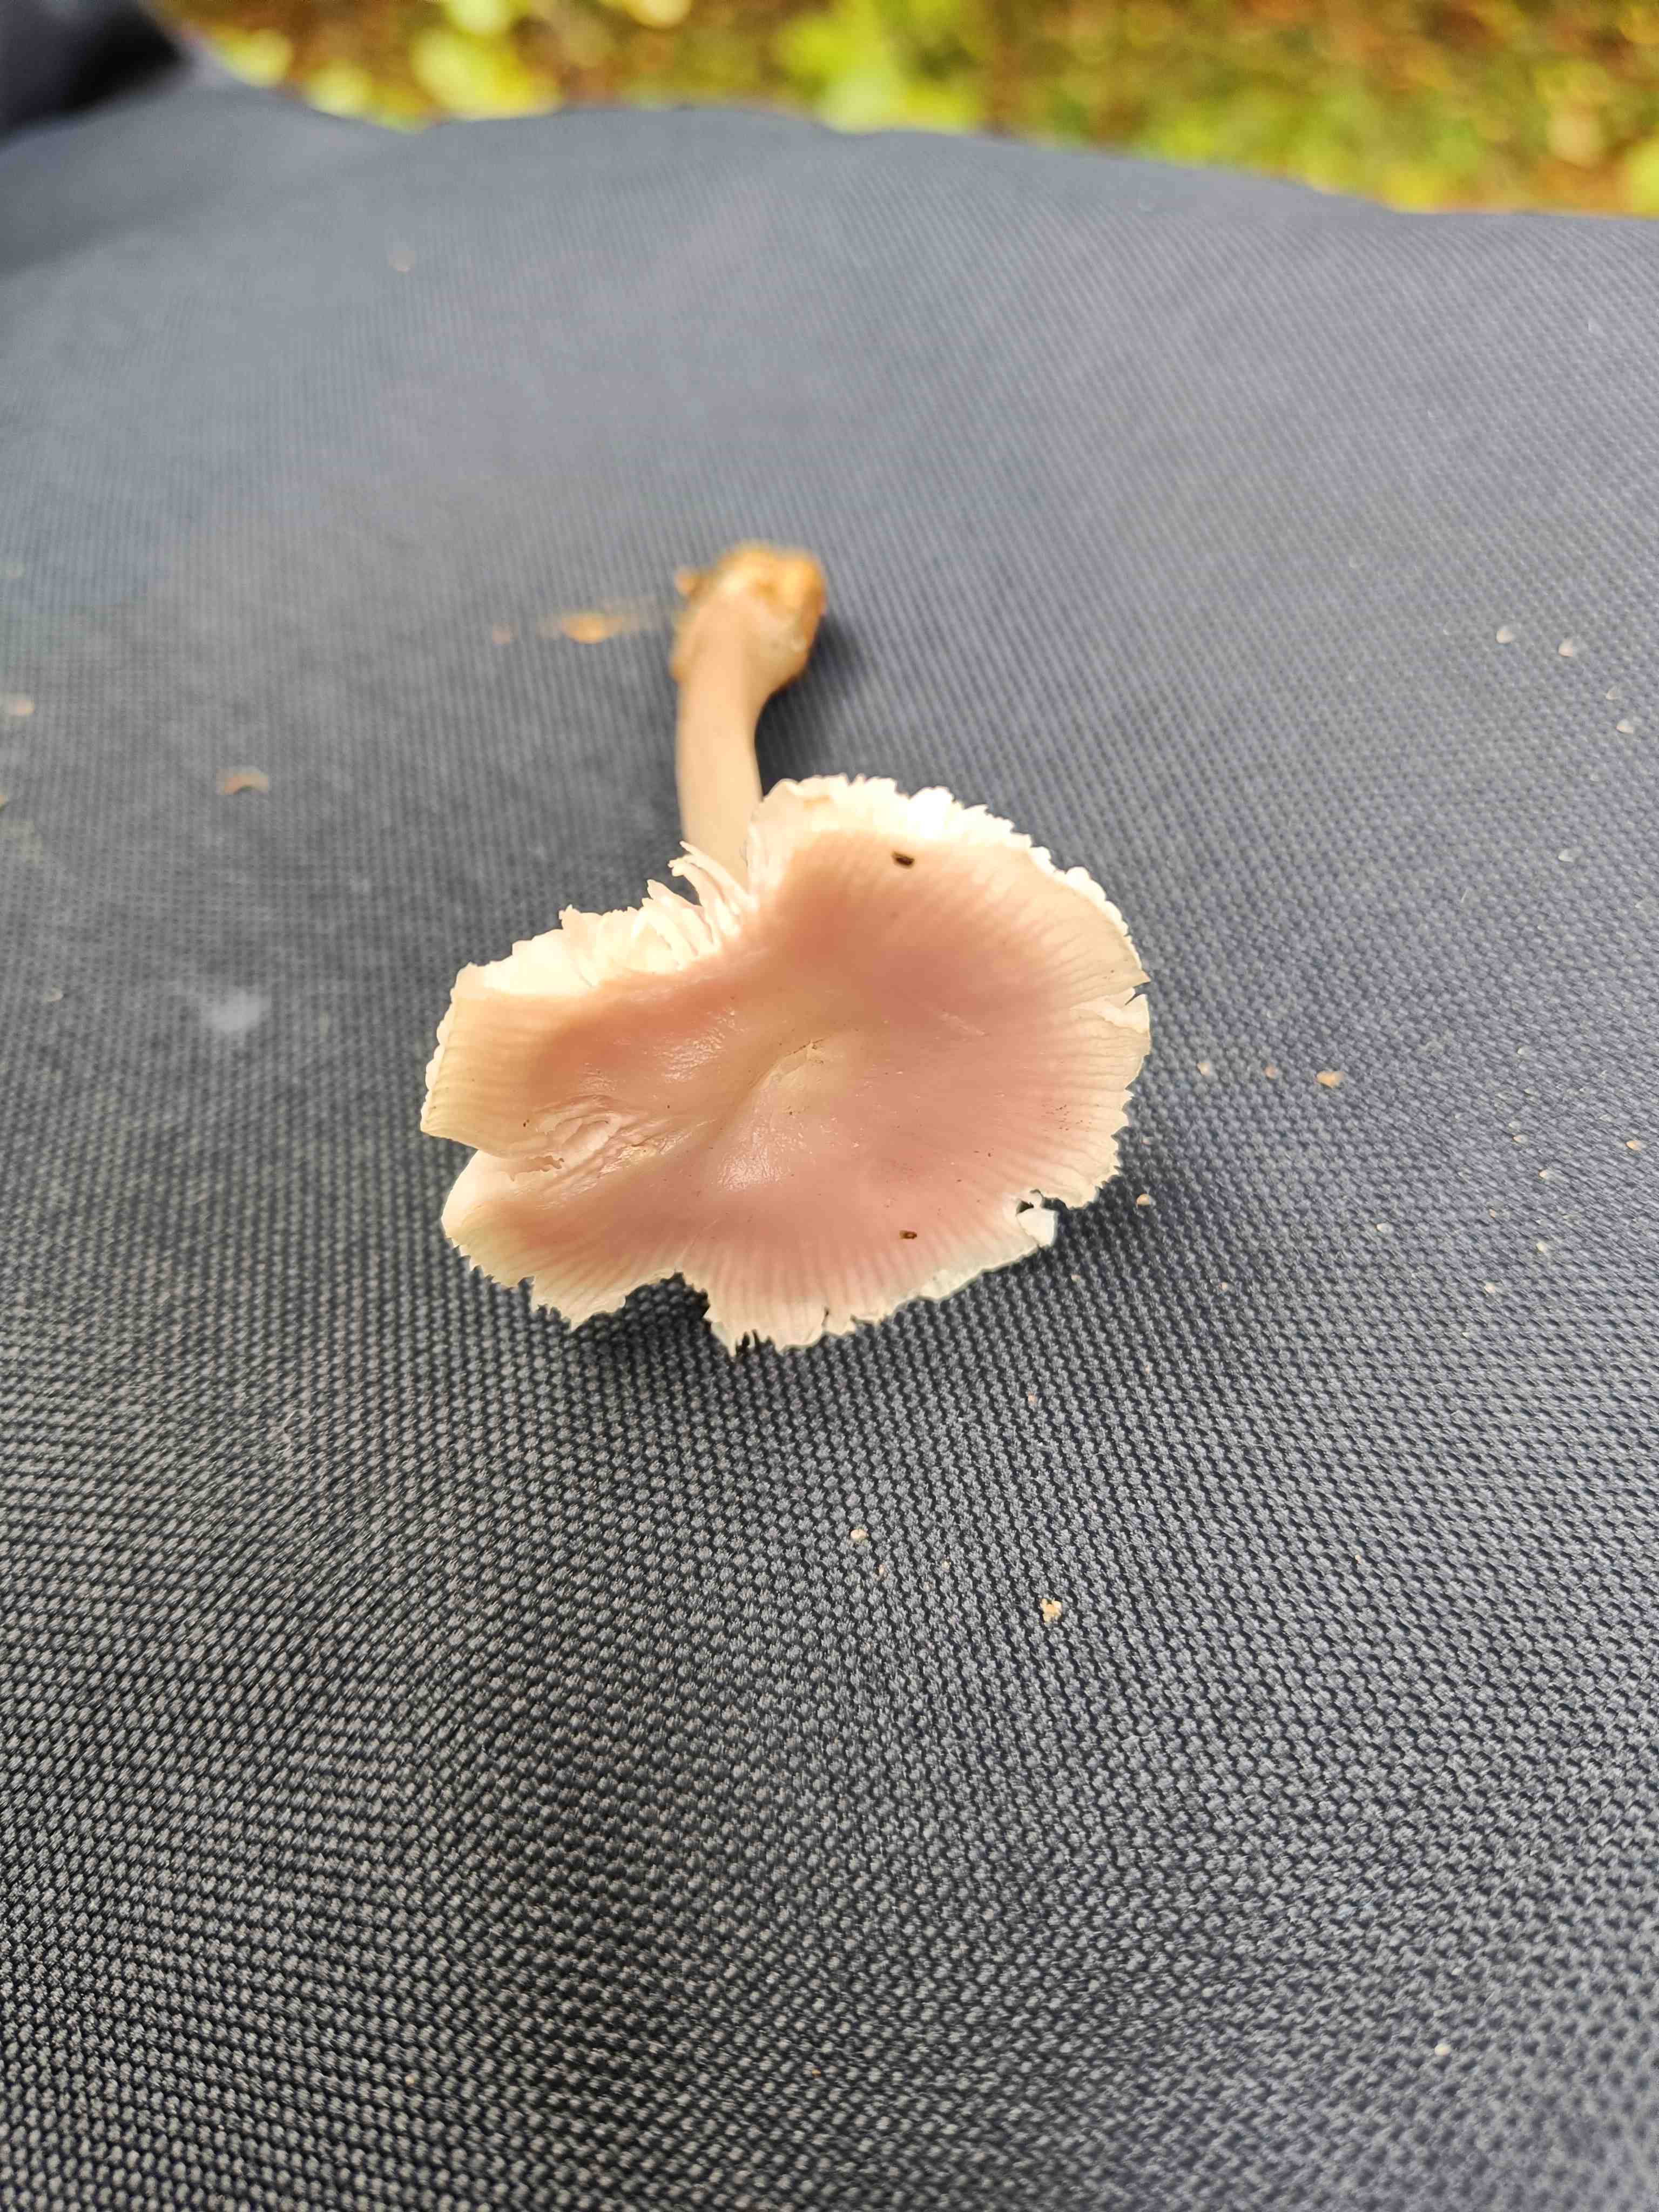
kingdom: Fungi
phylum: Basidiomycota
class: Agaricomycetes
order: Agaricales
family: Mycenaceae
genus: Mycena
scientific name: Mycena rosea
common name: rosa huesvamp
